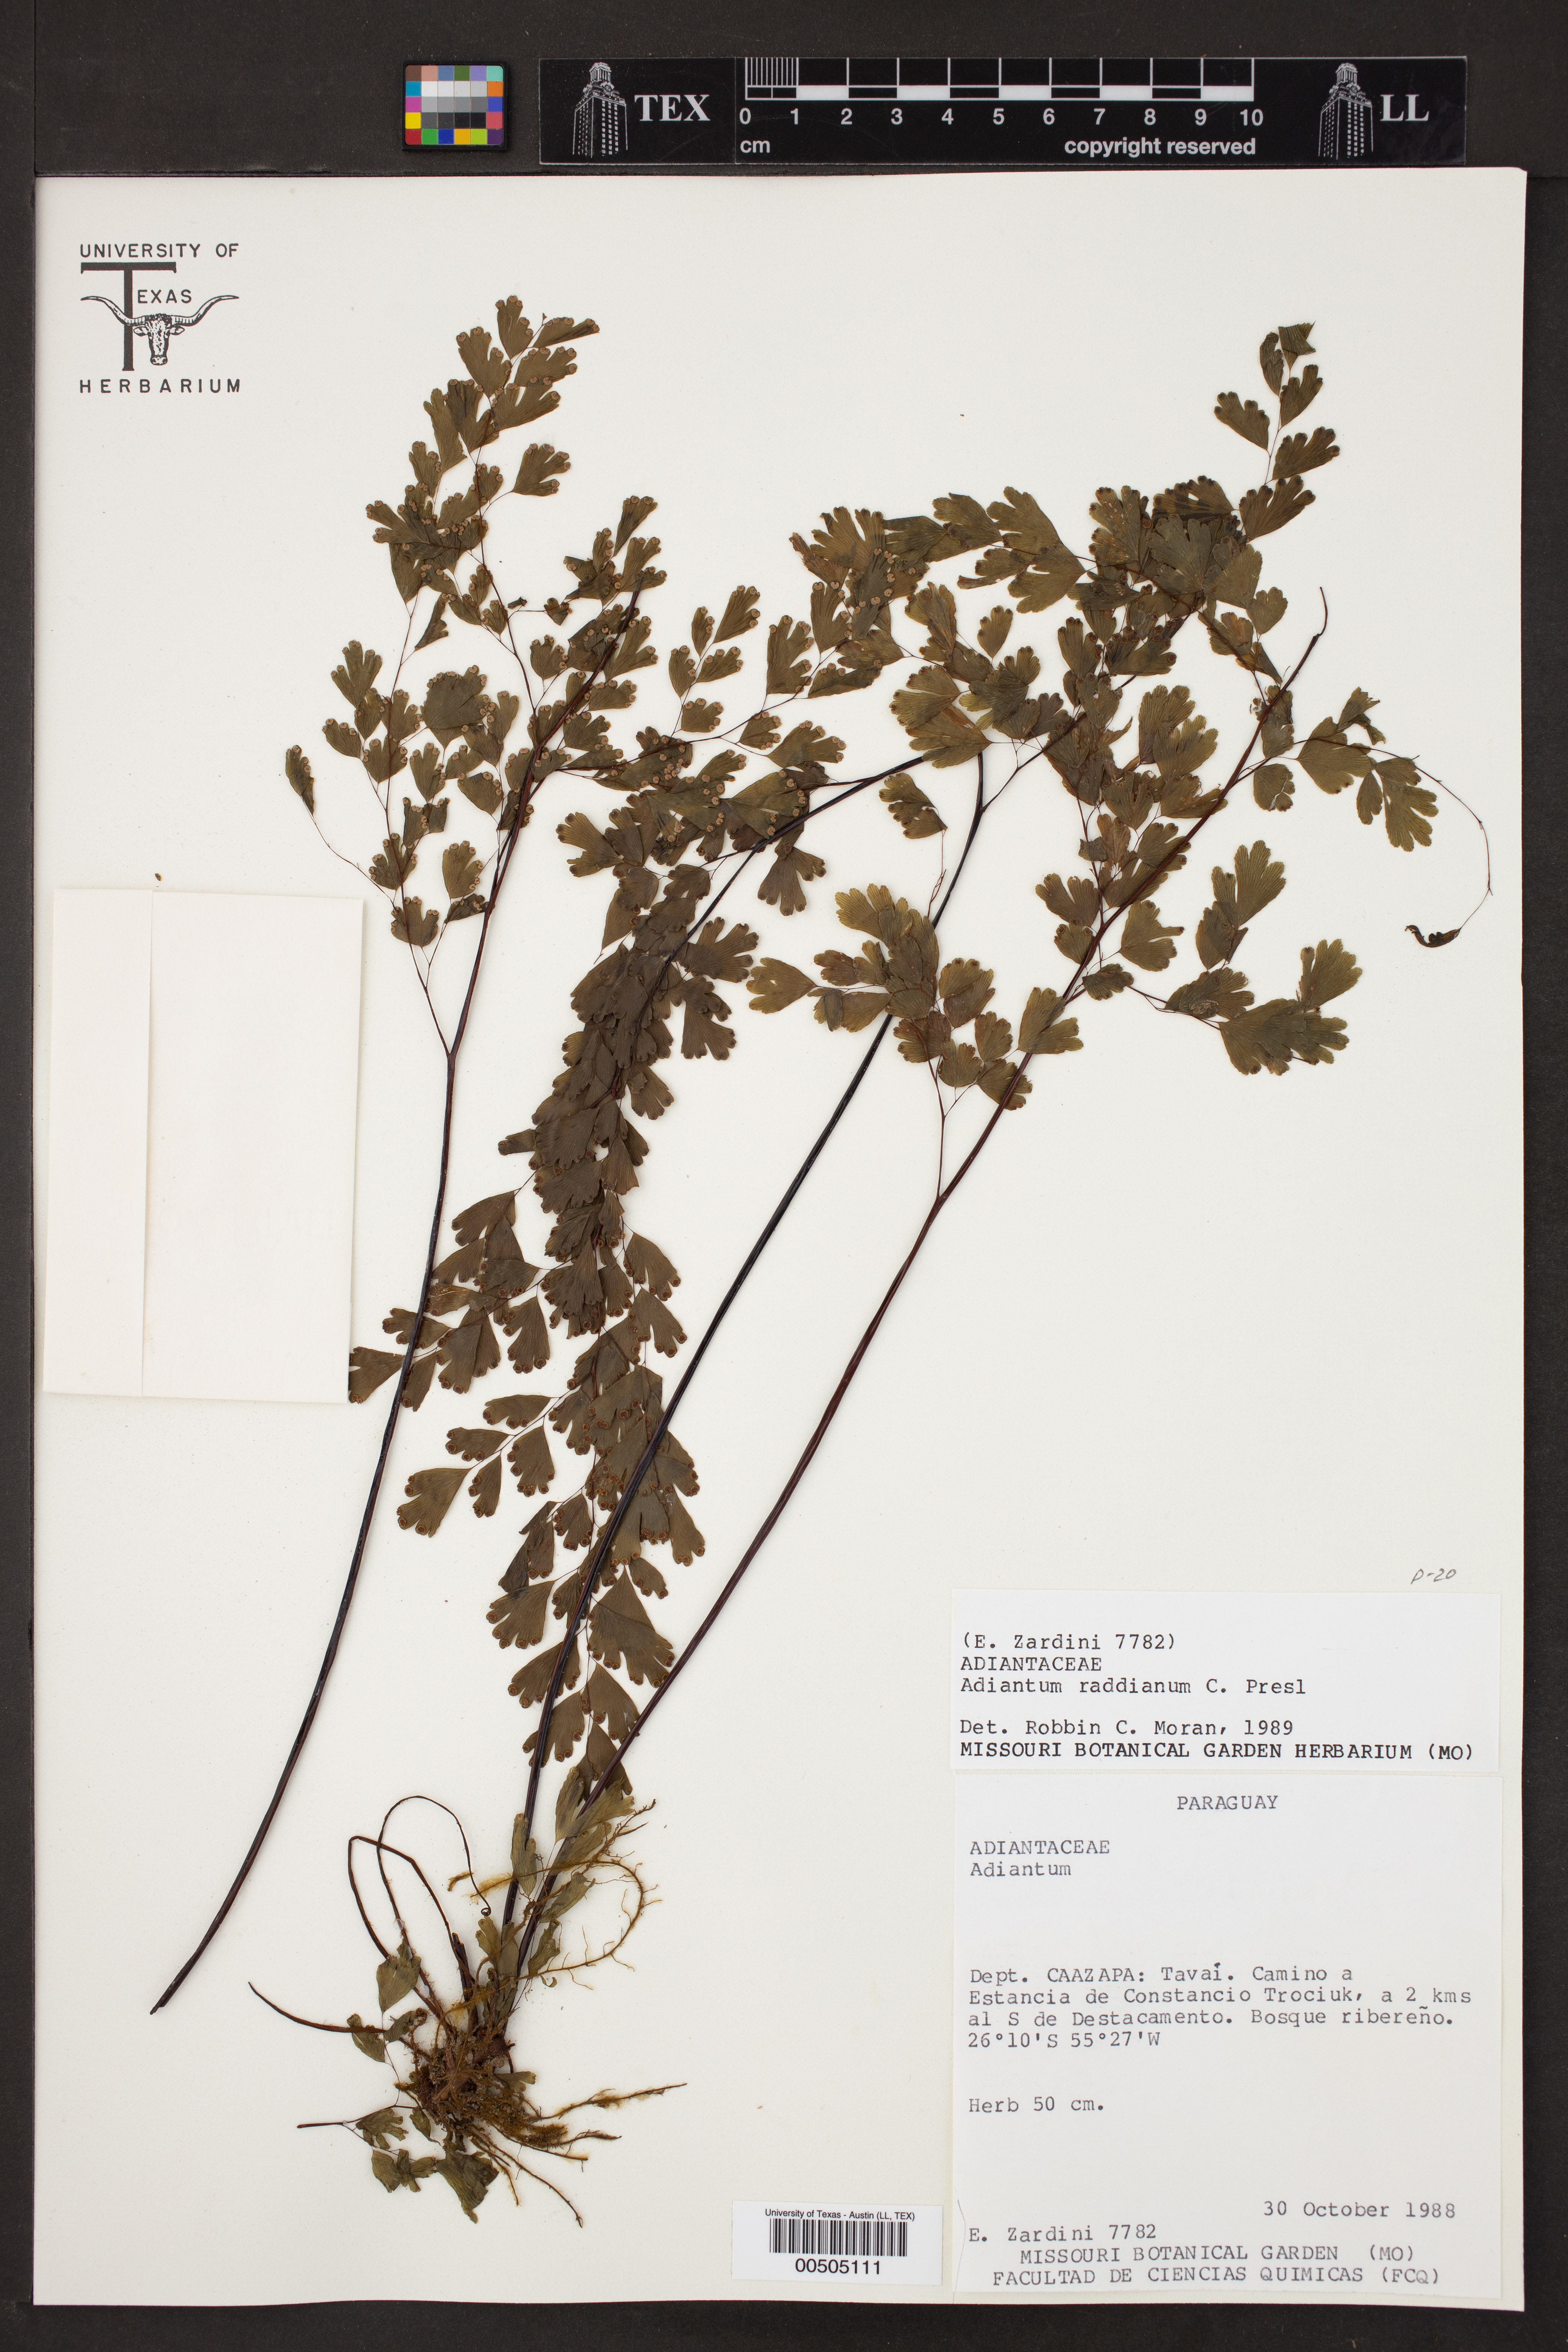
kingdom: Plantae
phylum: Tracheophyta
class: Polypodiopsida
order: Polypodiales
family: Pteridaceae
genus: Adiantum
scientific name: Adiantum raddianum
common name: Delta maidenhair fern
